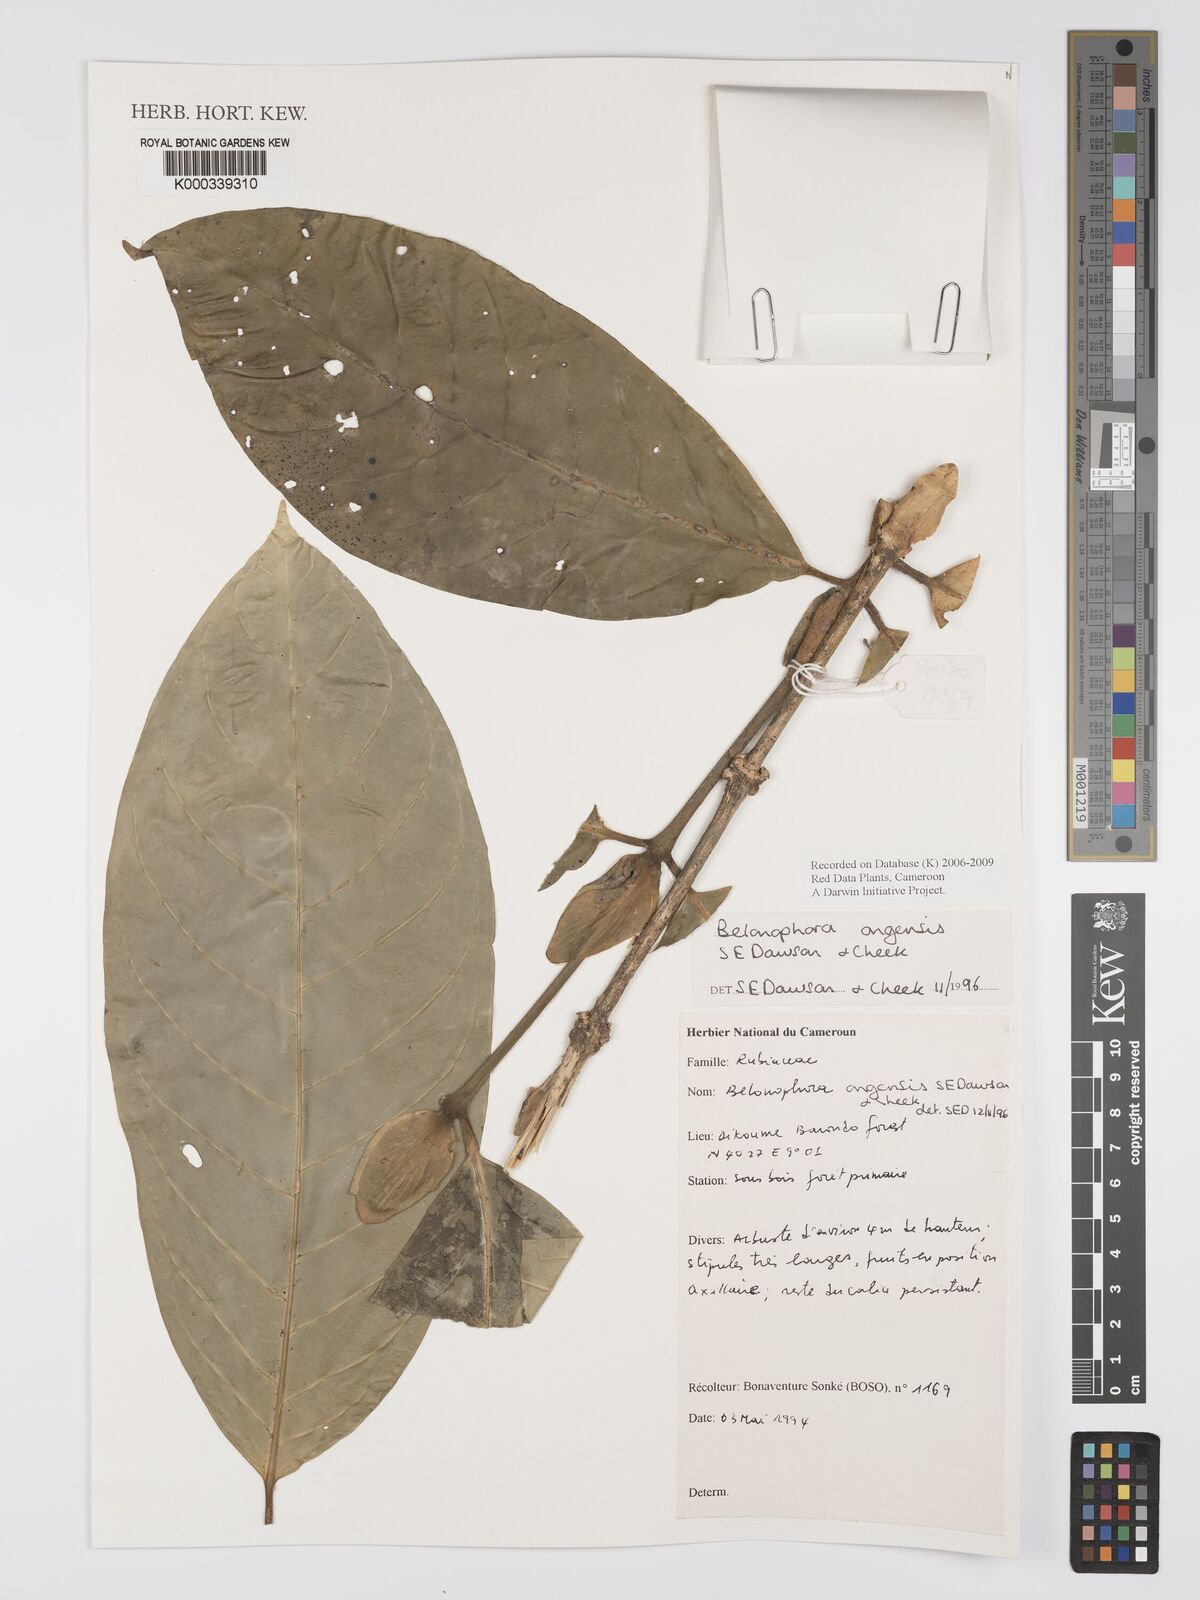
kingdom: Plantae
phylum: Tracheophyta
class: Magnoliopsida
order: Gentianales
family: Rubiaceae
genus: Belonophora
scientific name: Belonophora ongensis
